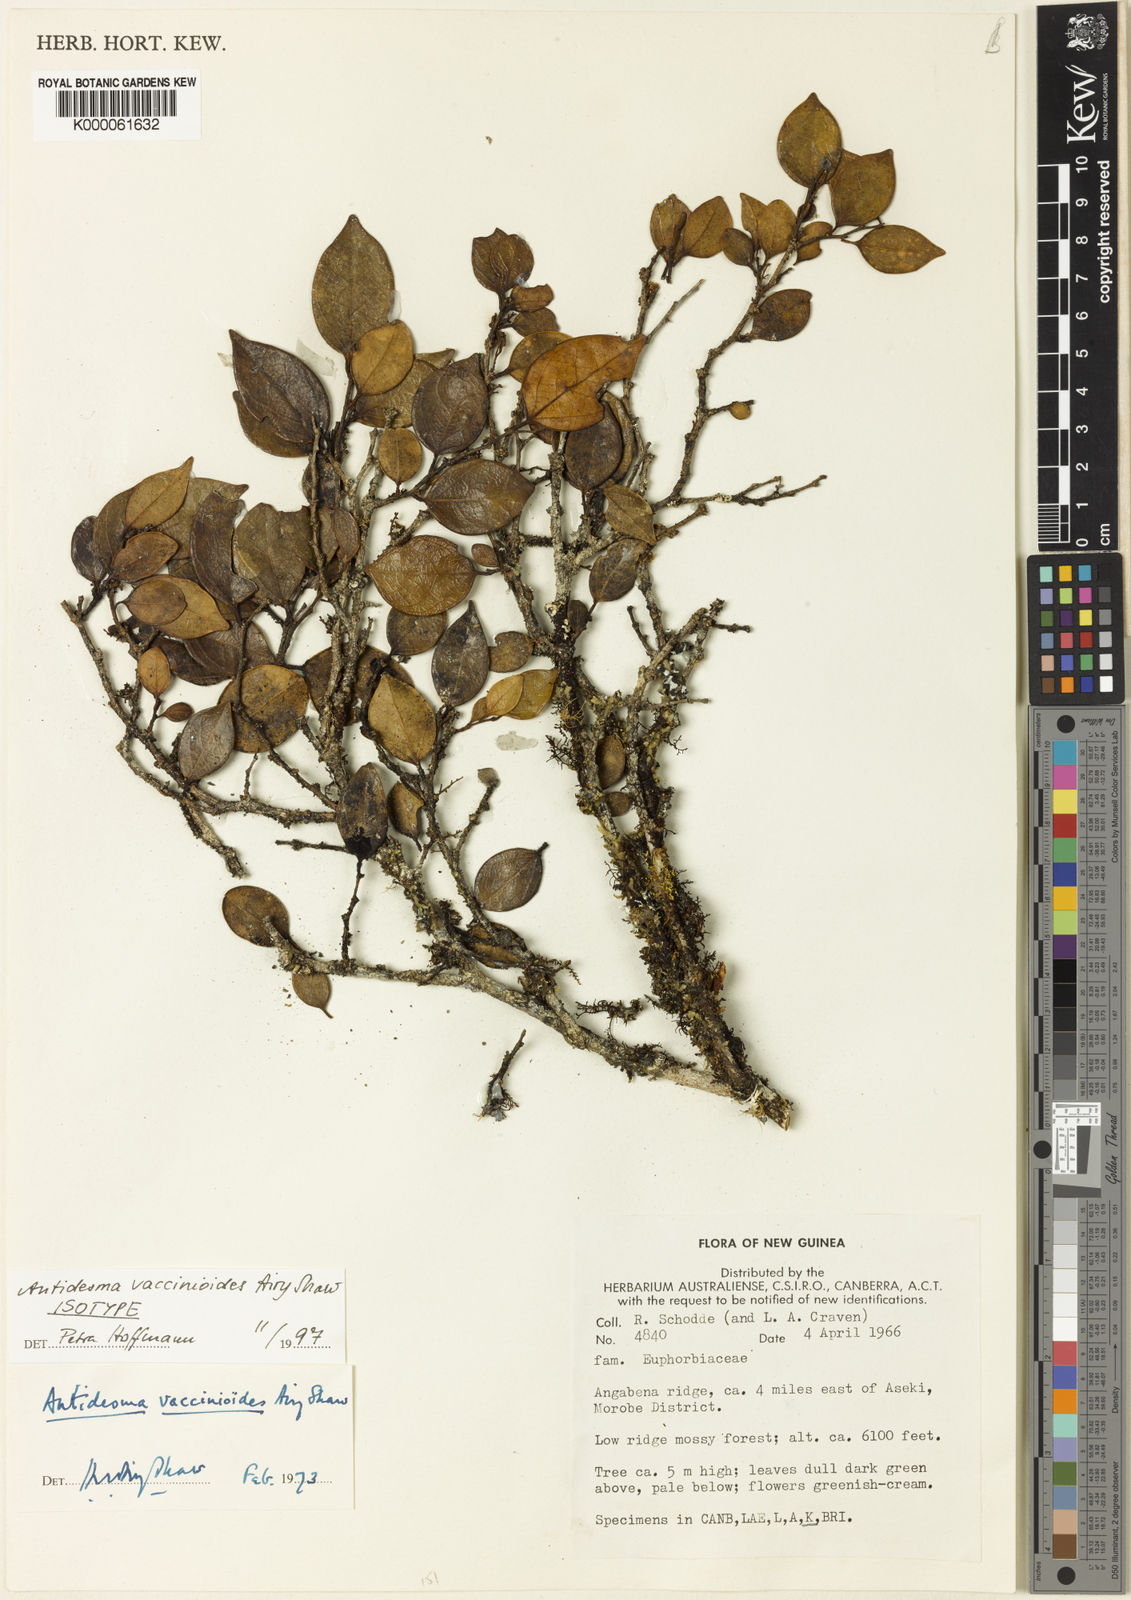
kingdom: Plantae
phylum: Tracheophyta
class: Magnoliopsida
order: Malpighiales
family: Phyllanthaceae
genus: Antidesma
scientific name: Antidesma vaccinioides
